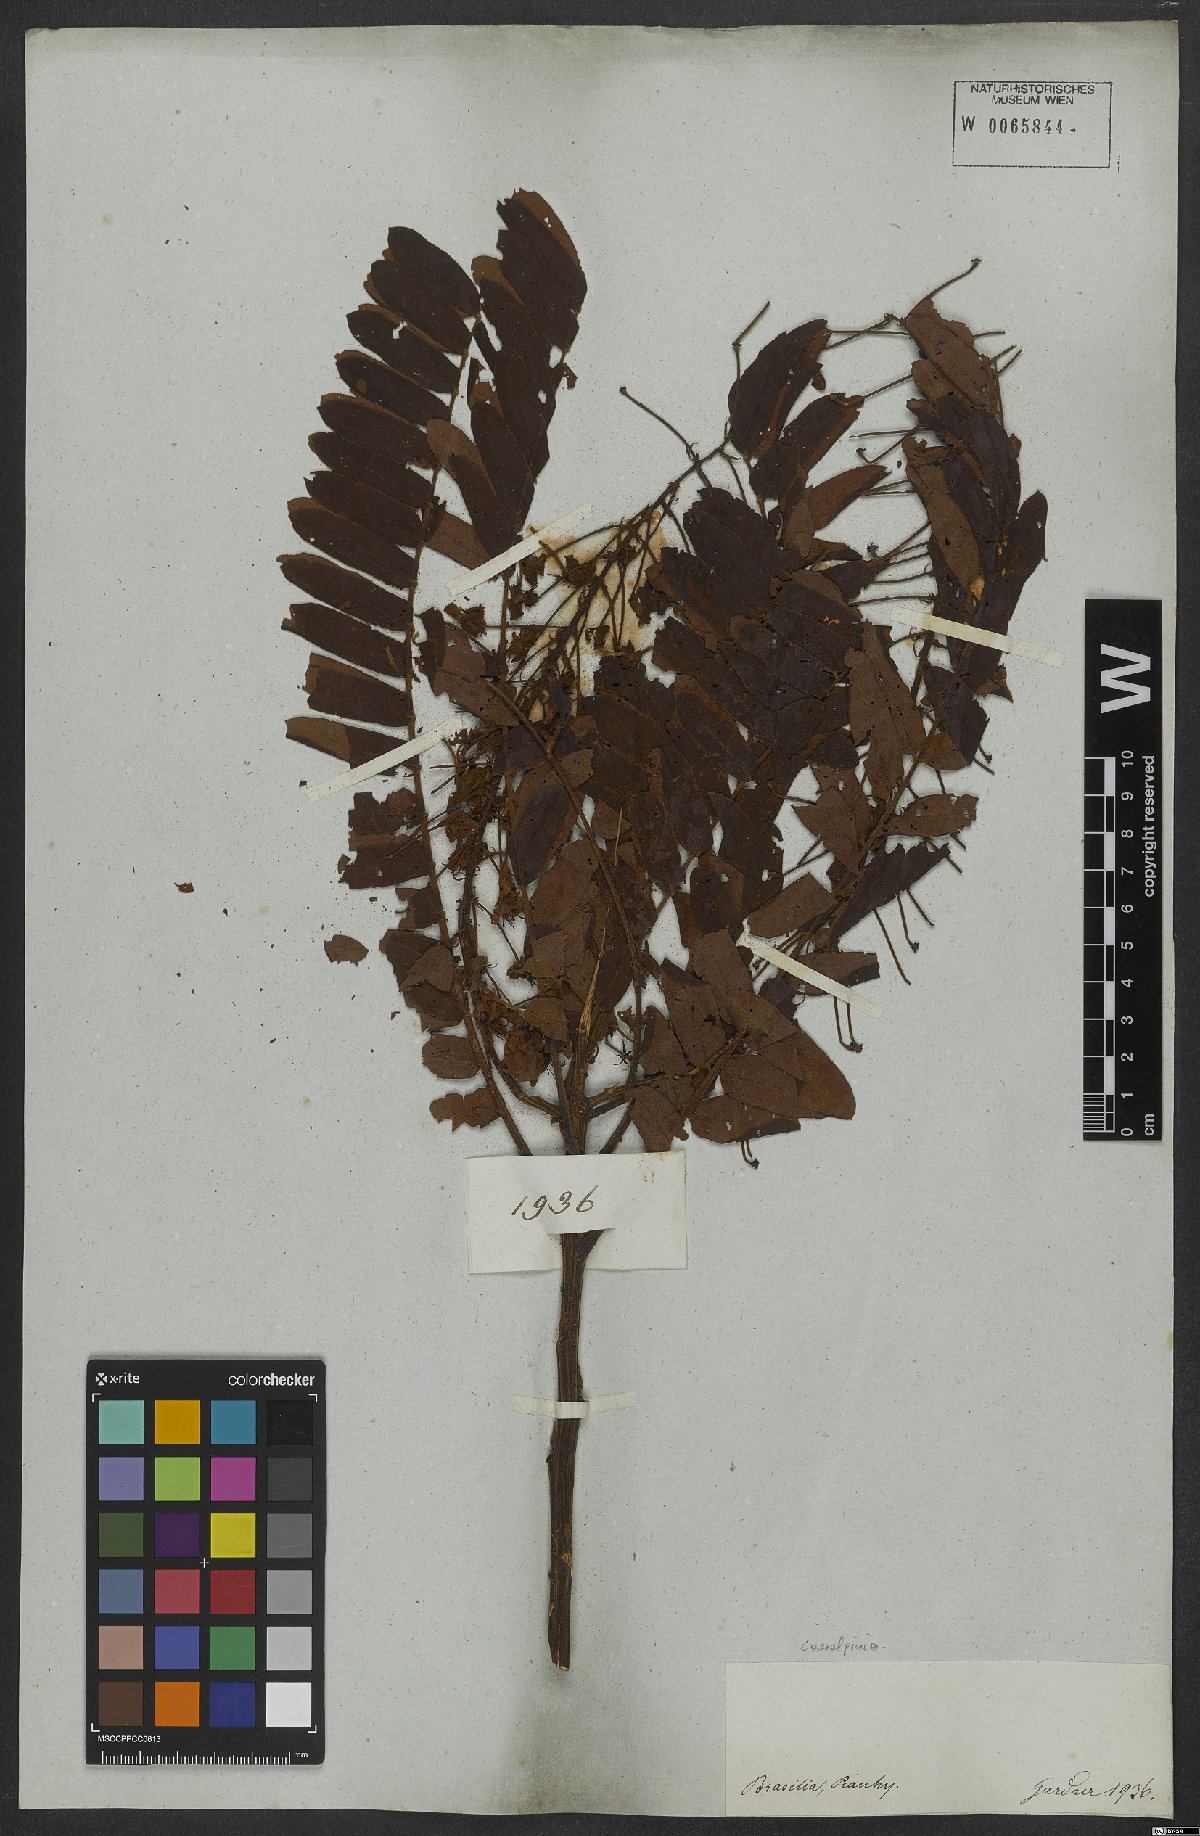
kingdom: Plantae
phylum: Tracheophyta
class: Magnoliopsida
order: Fabales
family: Fabaceae
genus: Caesalpinia
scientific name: Caesalpinia
